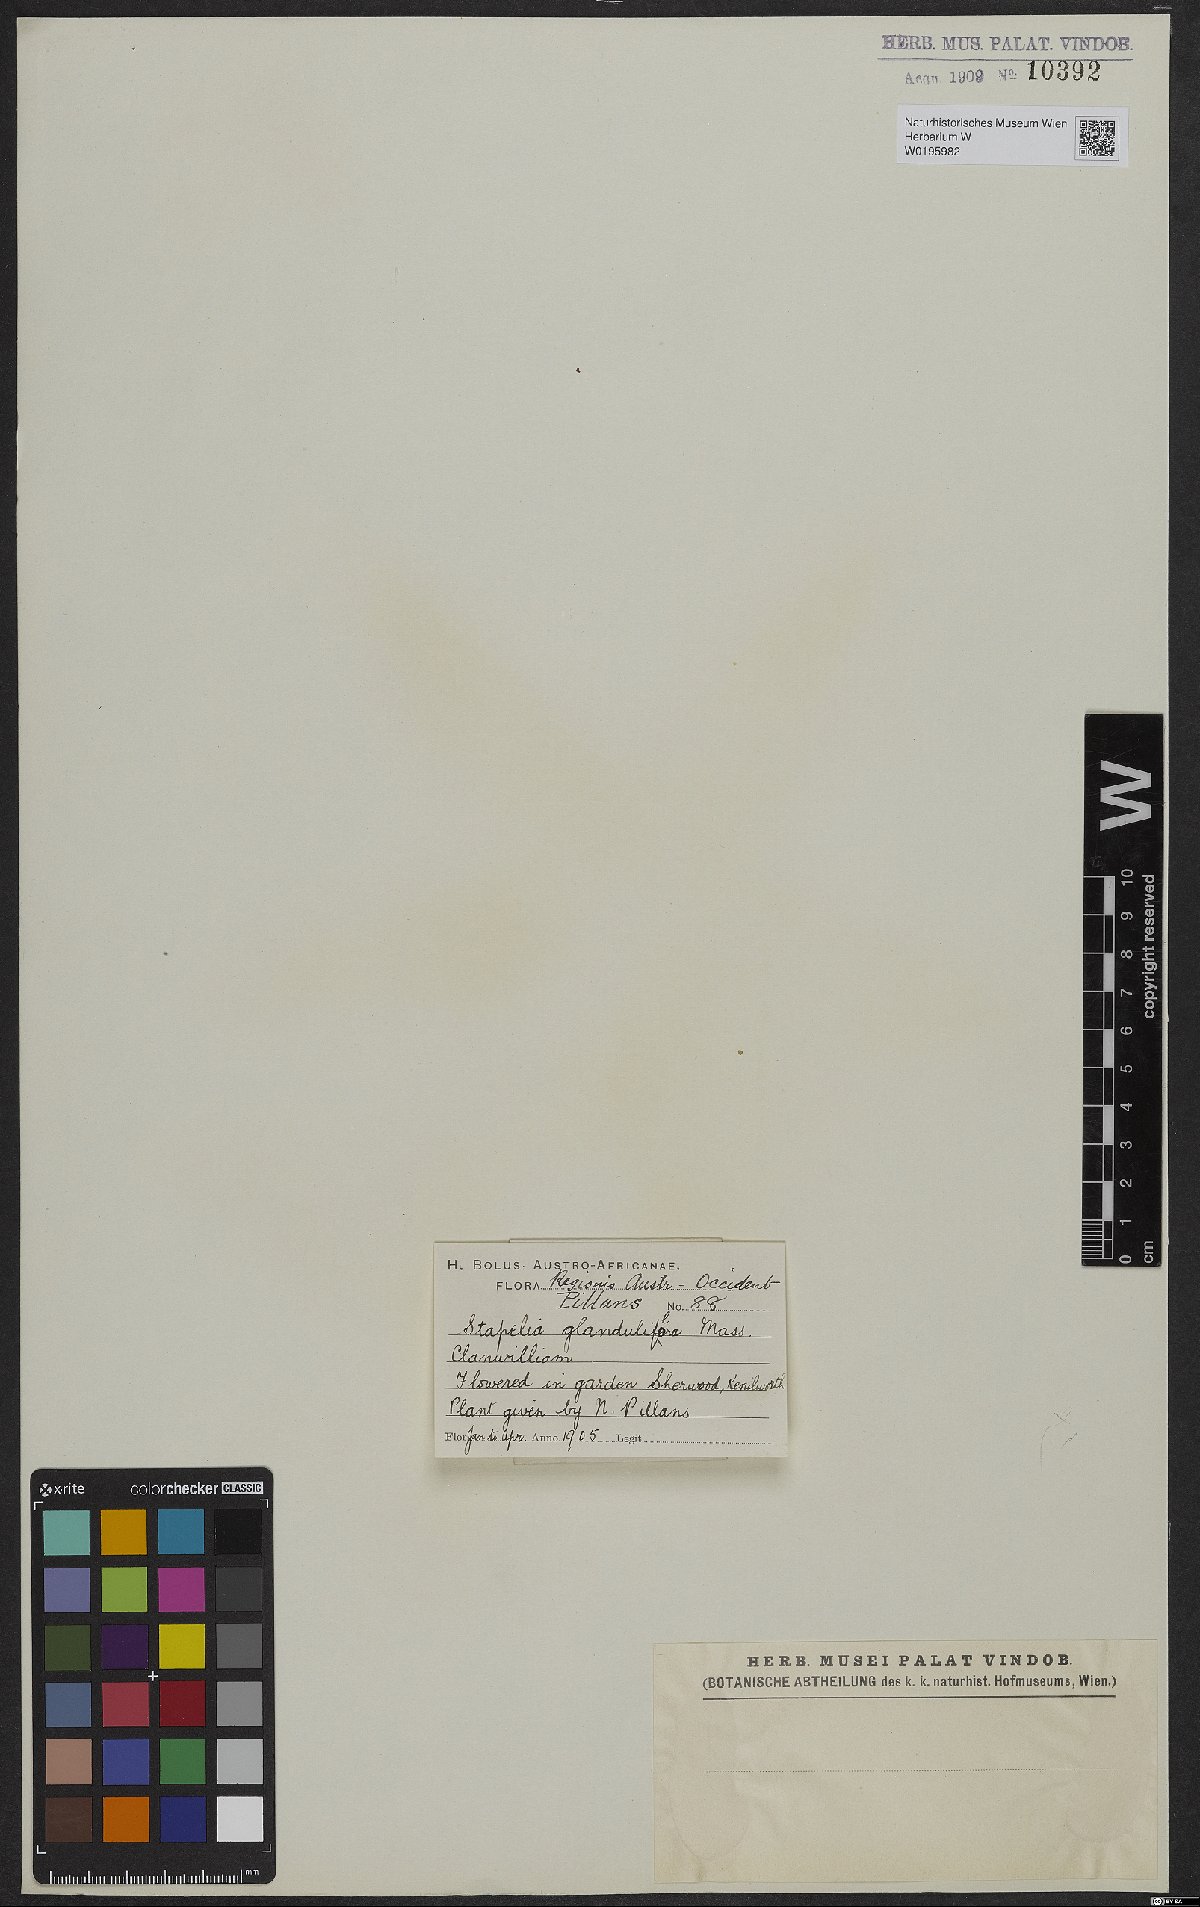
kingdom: Plantae
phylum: Tracheophyta
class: Magnoliopsida
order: Gentianales
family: Apocynaceae
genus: Ceropegia
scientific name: Ceropegia glanduliflora
